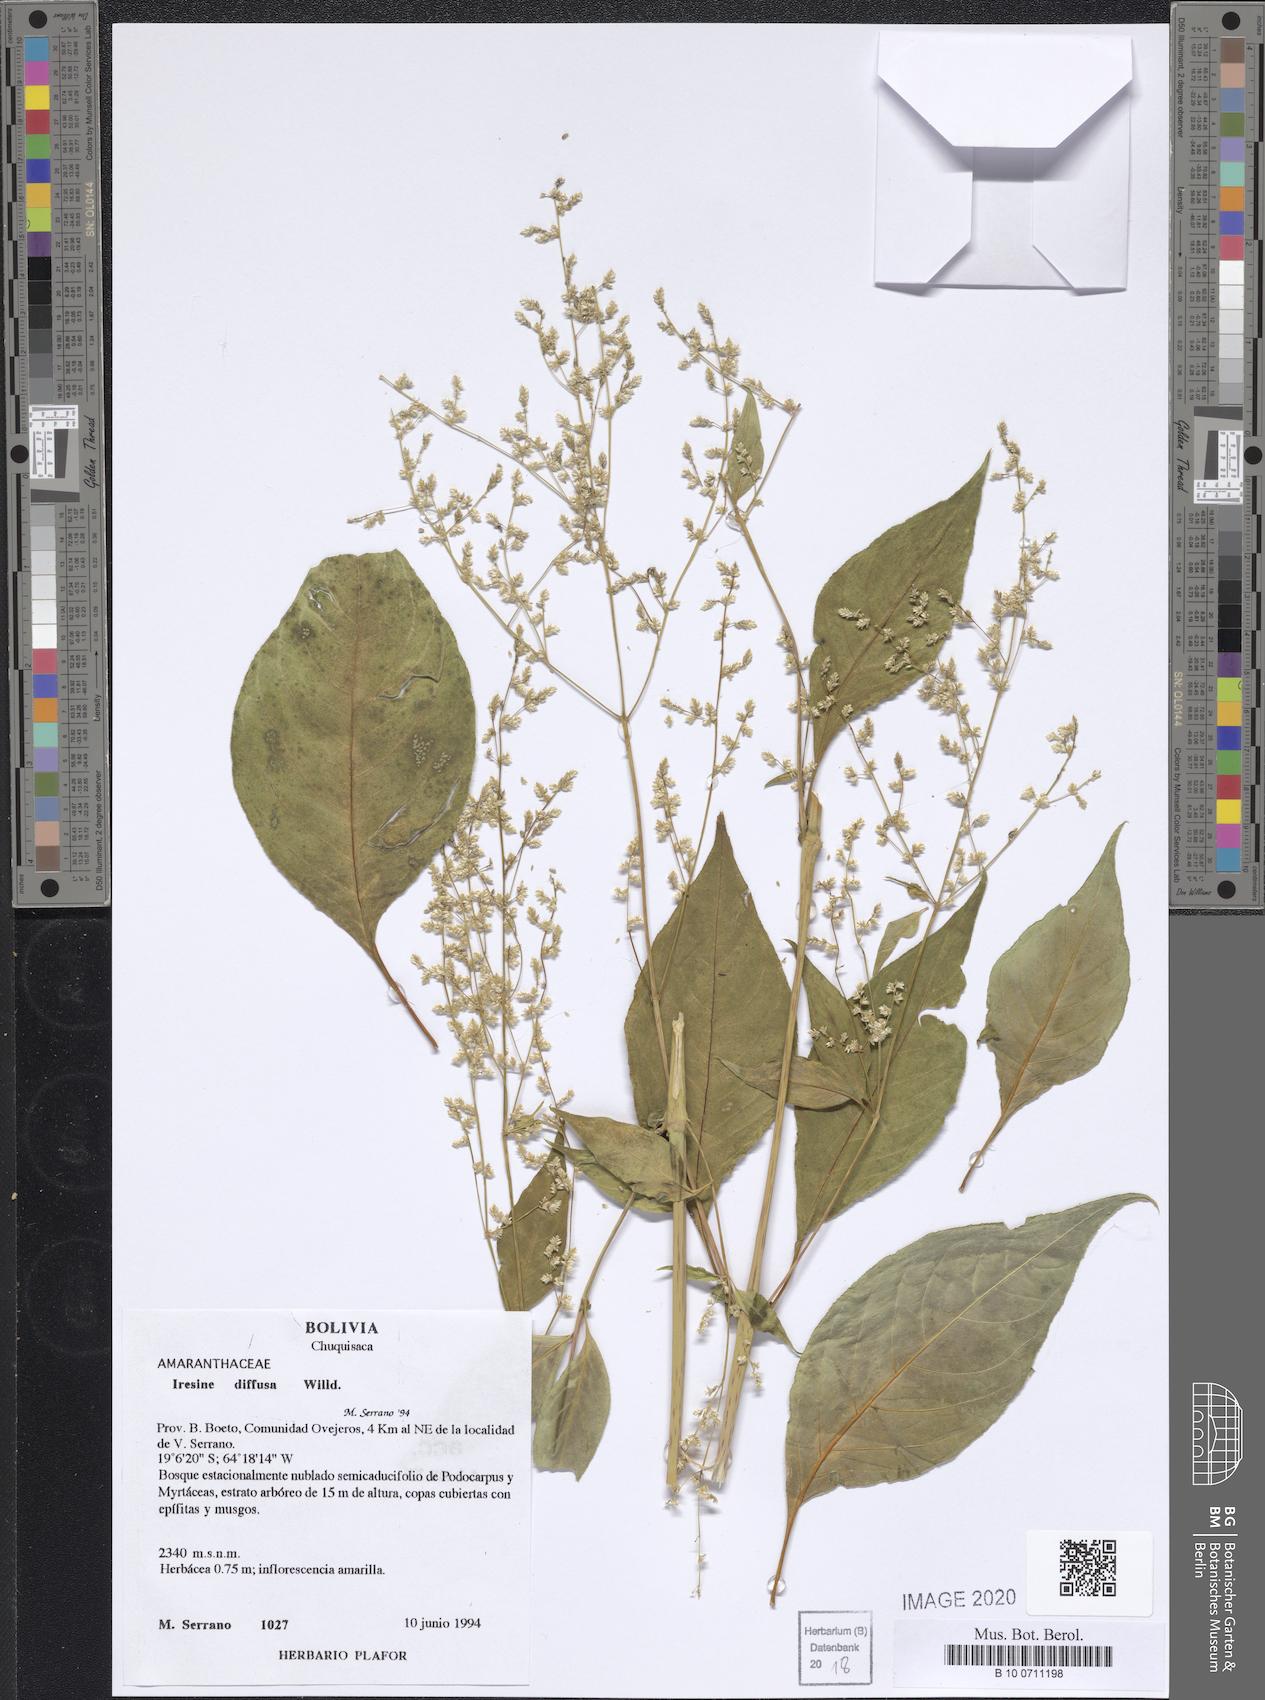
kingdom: Plantae
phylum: Tracheophyta
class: Magnoliopsida
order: Caryophyllales
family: Amaranthaceae
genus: Iresine
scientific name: Iresine diffusa
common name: Juba's-bush
